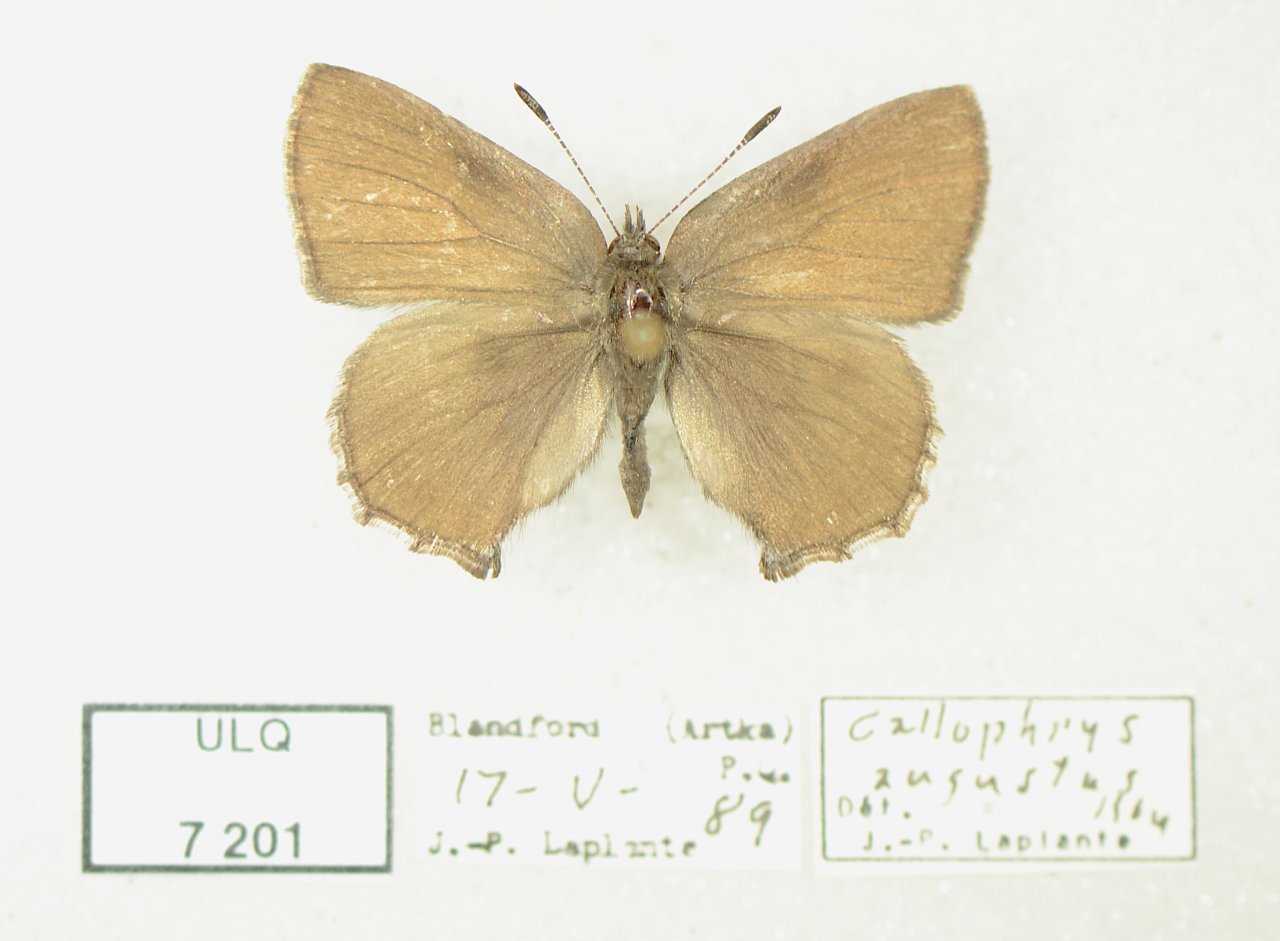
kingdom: Animalia
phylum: Arthropoda
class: Insecta
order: Lepidoptera
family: Lycaenidae
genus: Incisalia
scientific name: Incisalia irioides
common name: Brown Elfin
